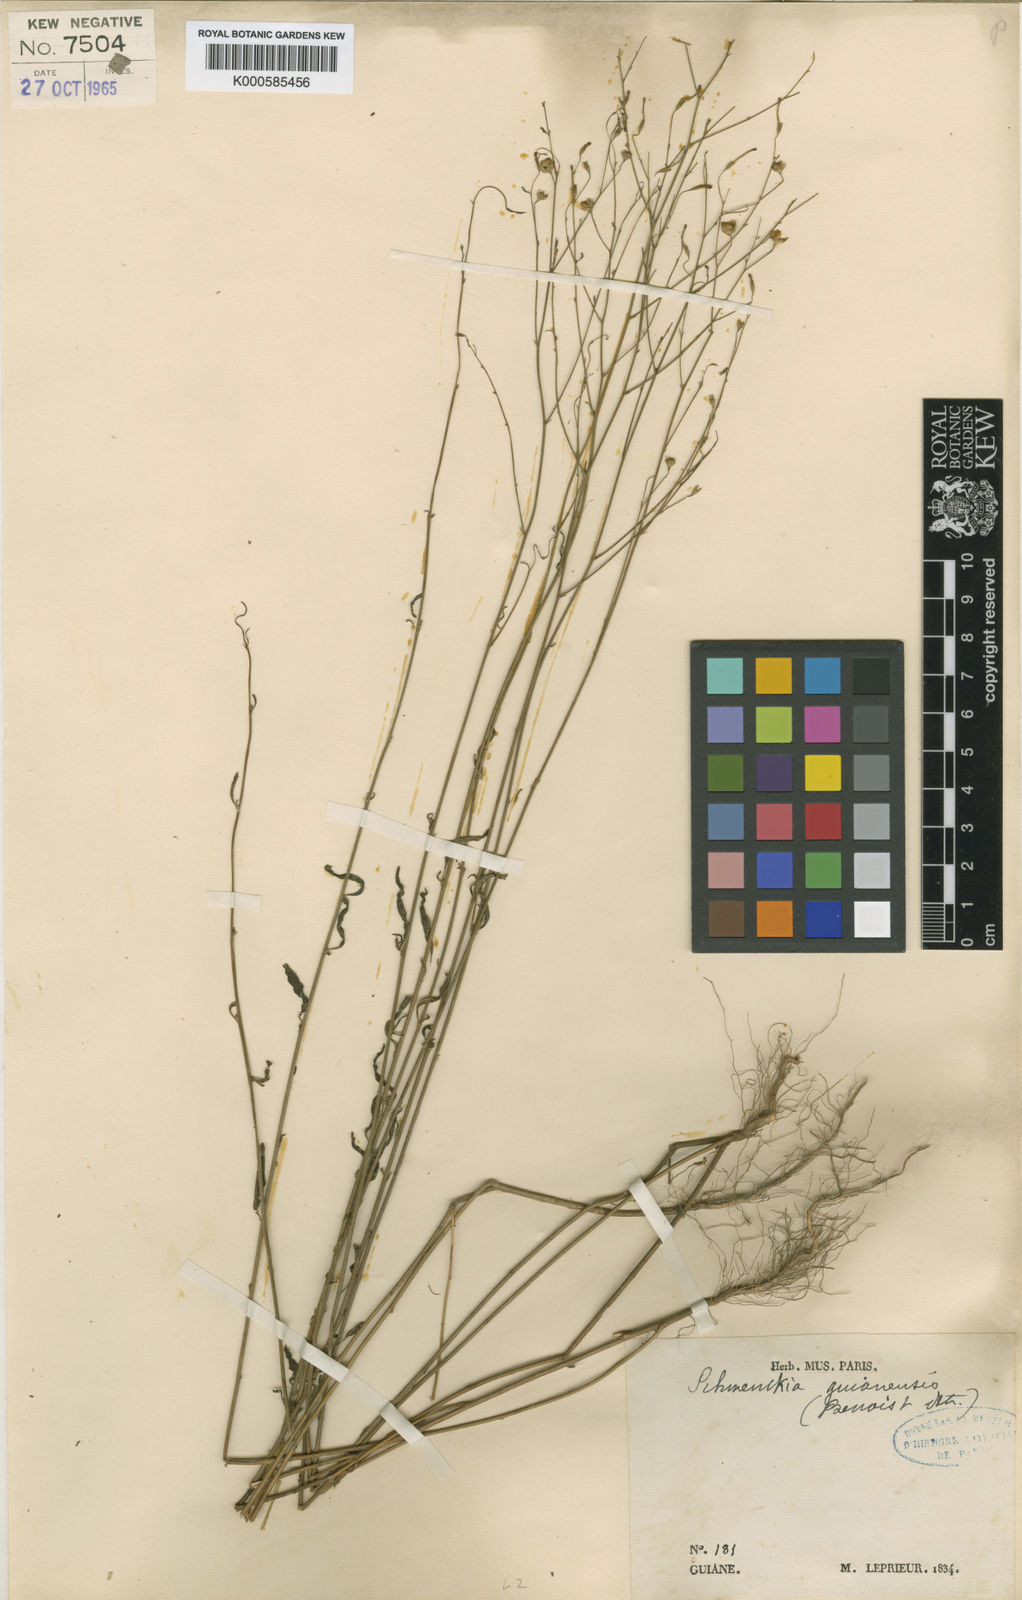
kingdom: Plantae
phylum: Tracheophyta
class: Magnoliopsida
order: Solanales
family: Solanaceae
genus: Schwenckia
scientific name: Schwenckia americana
